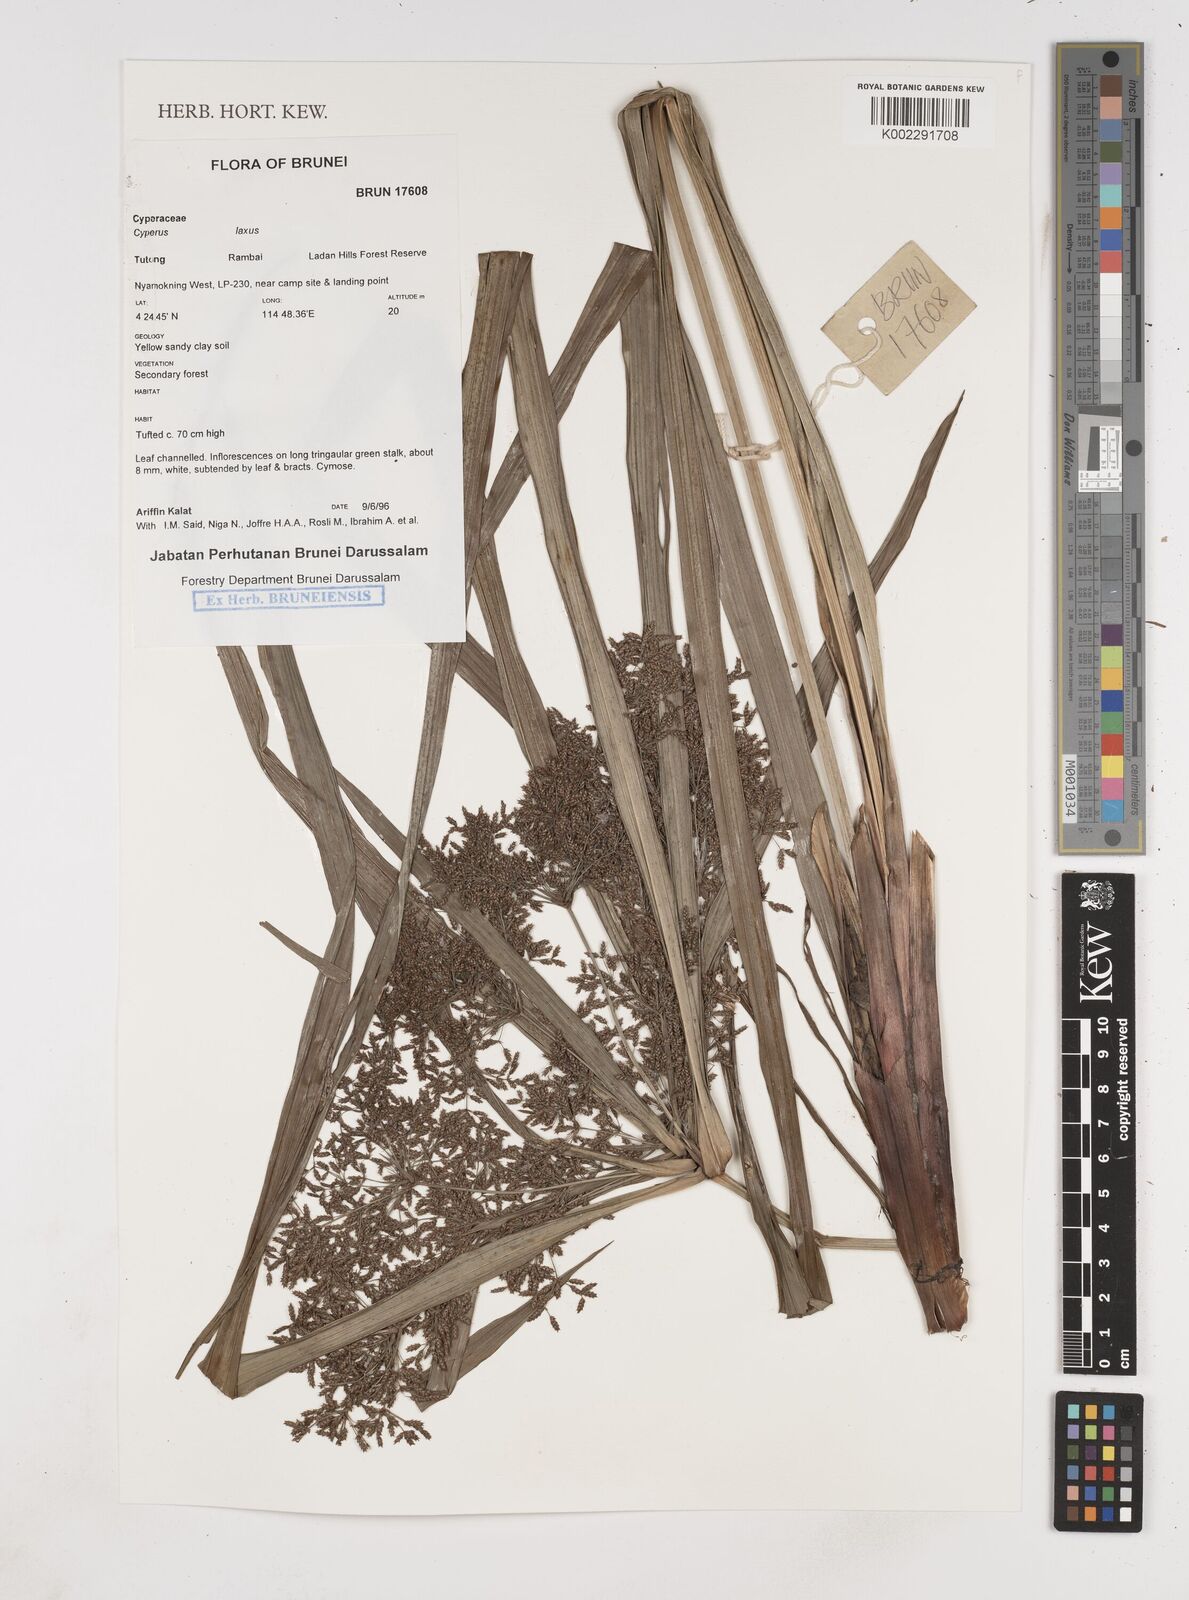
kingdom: Plantae
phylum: Tracheophyta
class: Liliopsida
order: Poales
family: Cyperaceae
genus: Cyperus
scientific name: Cyperus diffusus
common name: Dwarf umbrella grass
